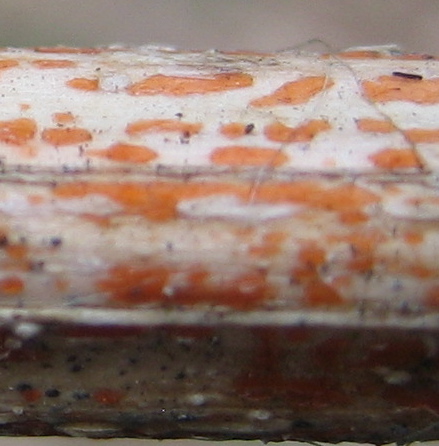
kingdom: Fungi
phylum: Ascomycota
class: Leotiomycetes
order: Helotiales
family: Calloriaceae
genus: Calloria
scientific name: Calloria urticae
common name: nælde-orangeskive
